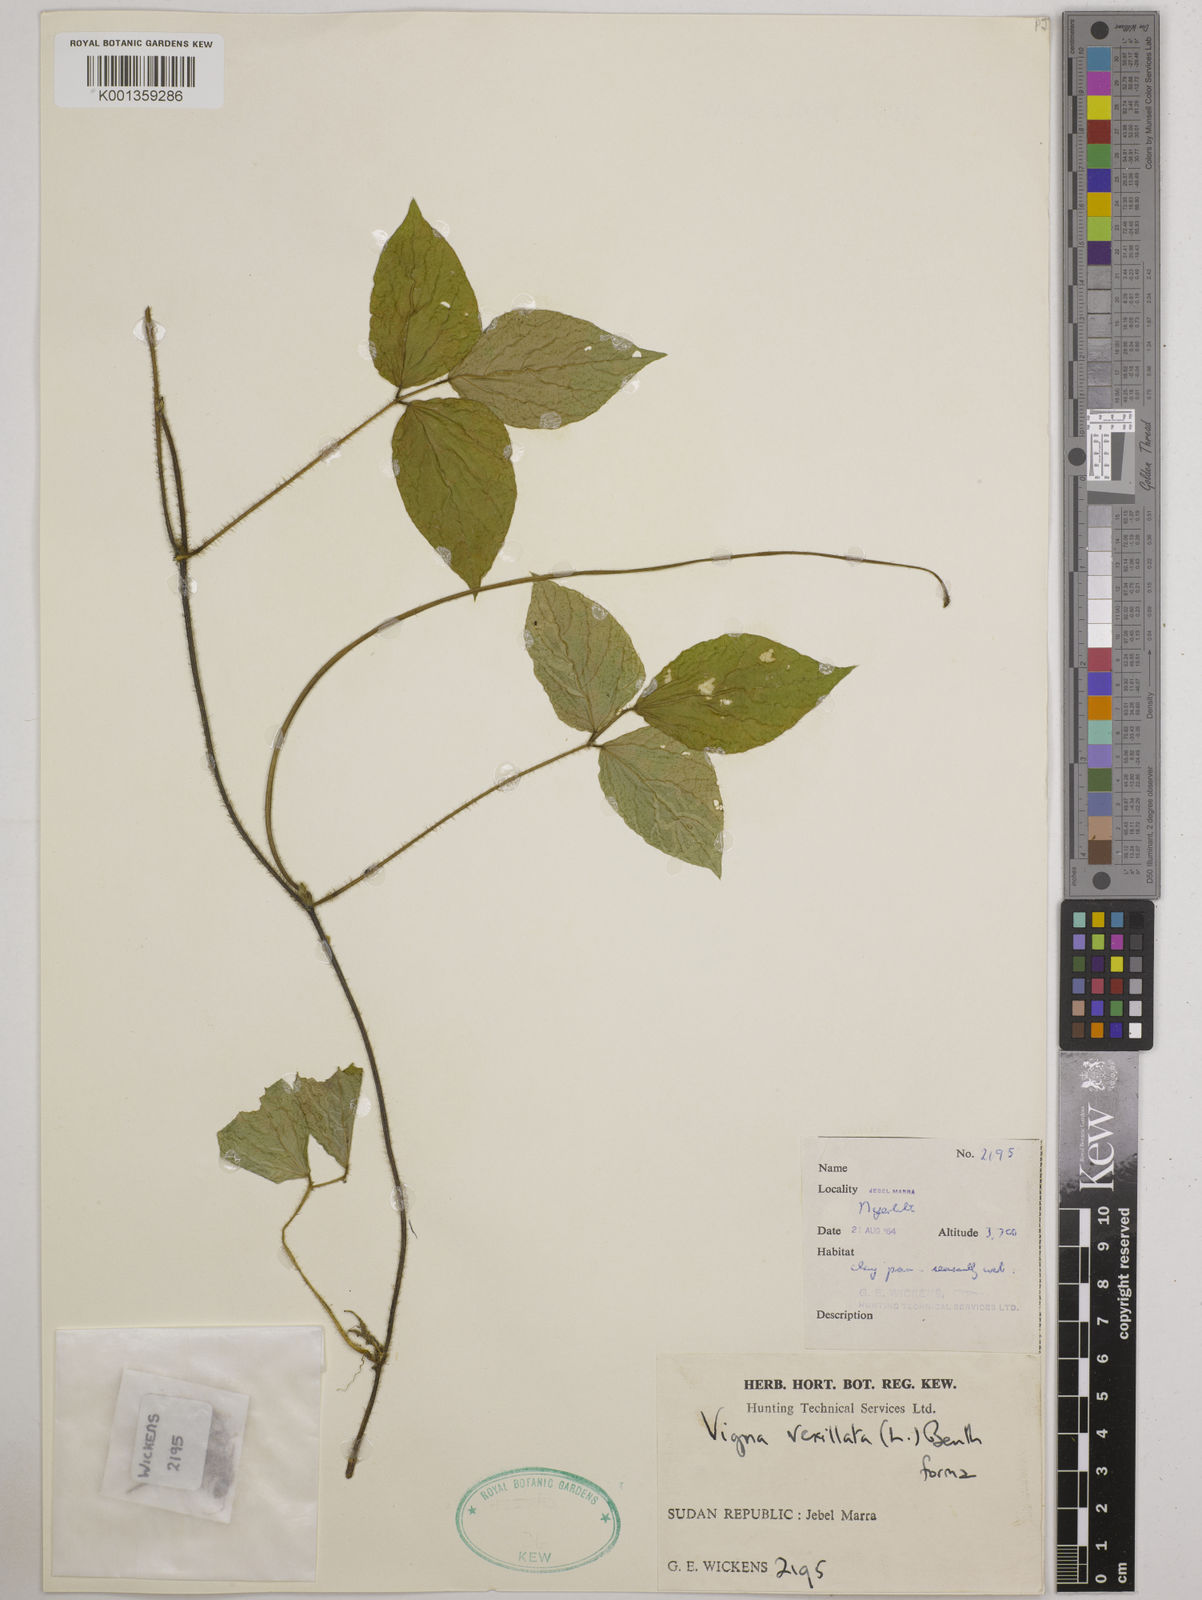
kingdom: Plantae
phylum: Tracheophyta
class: Magnoliopsida
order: Fabales
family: Fabaceae
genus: Vigna
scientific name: Vigna vexillata
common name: Zombi pea
